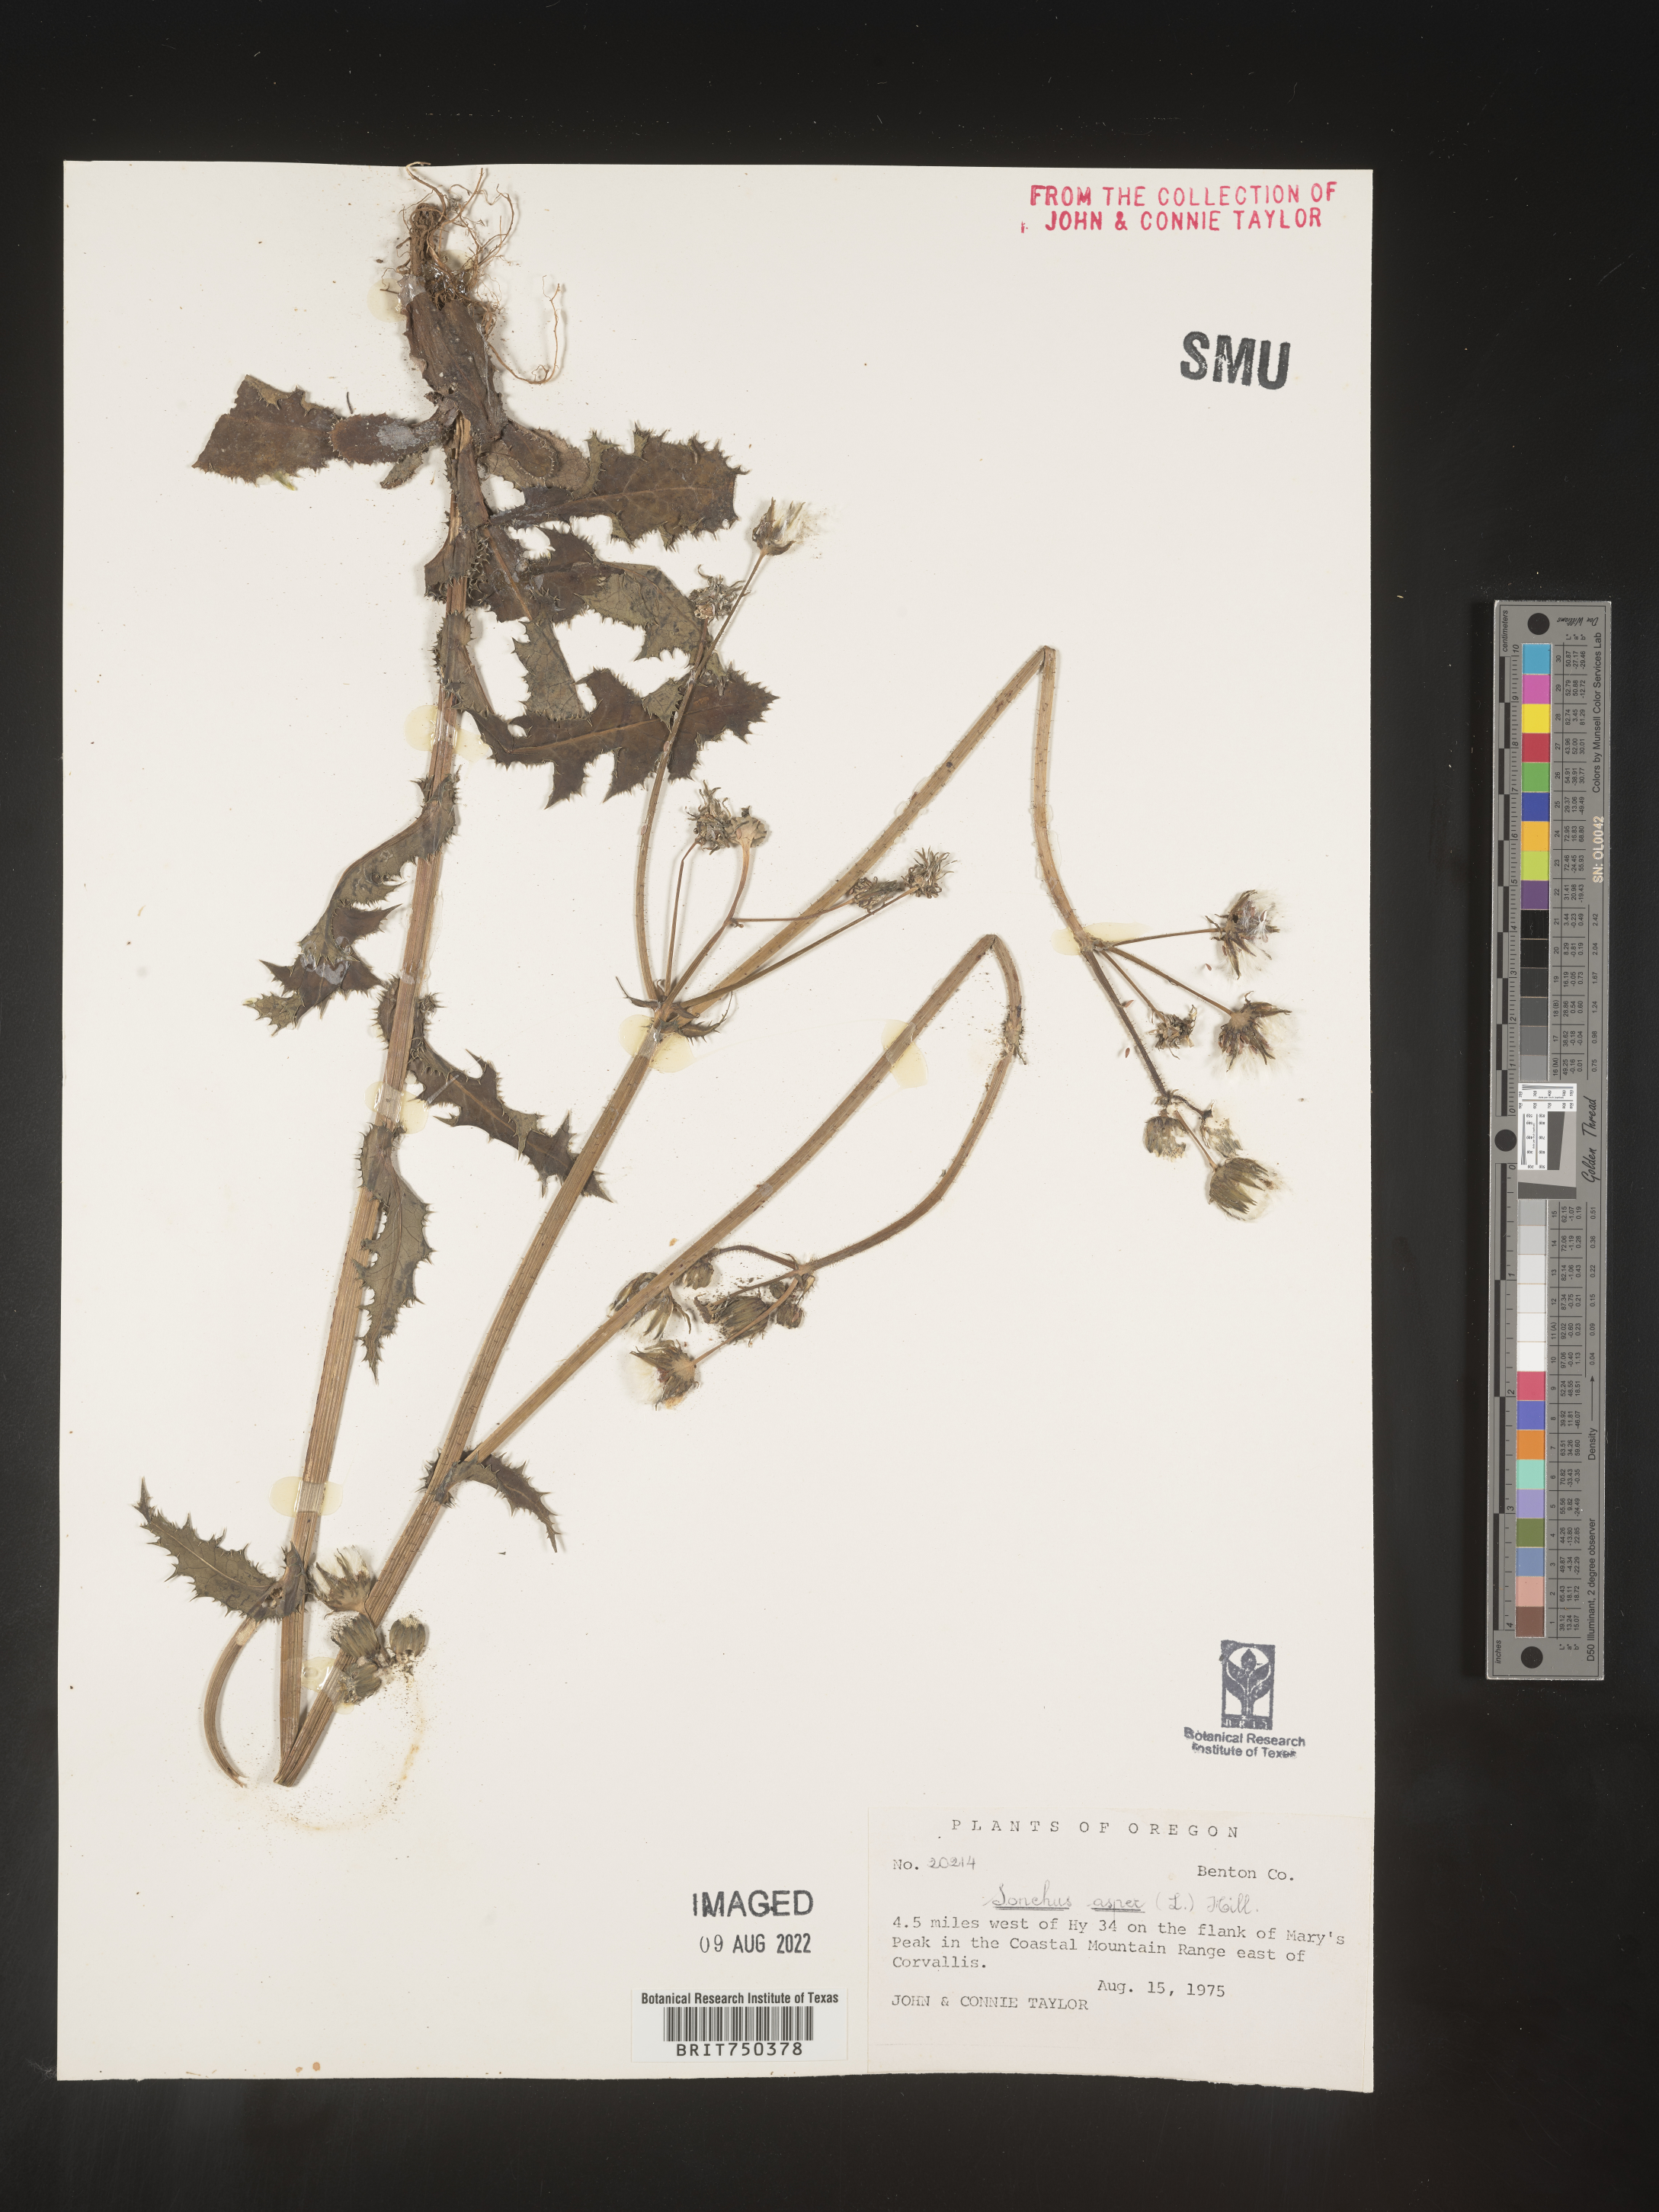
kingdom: Plantae
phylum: Tracheophyta
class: Magnoliopsida
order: Asterales
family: Asteraceae
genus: Sonchus
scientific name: Sonchus asper
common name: Prickly sow-thistle
